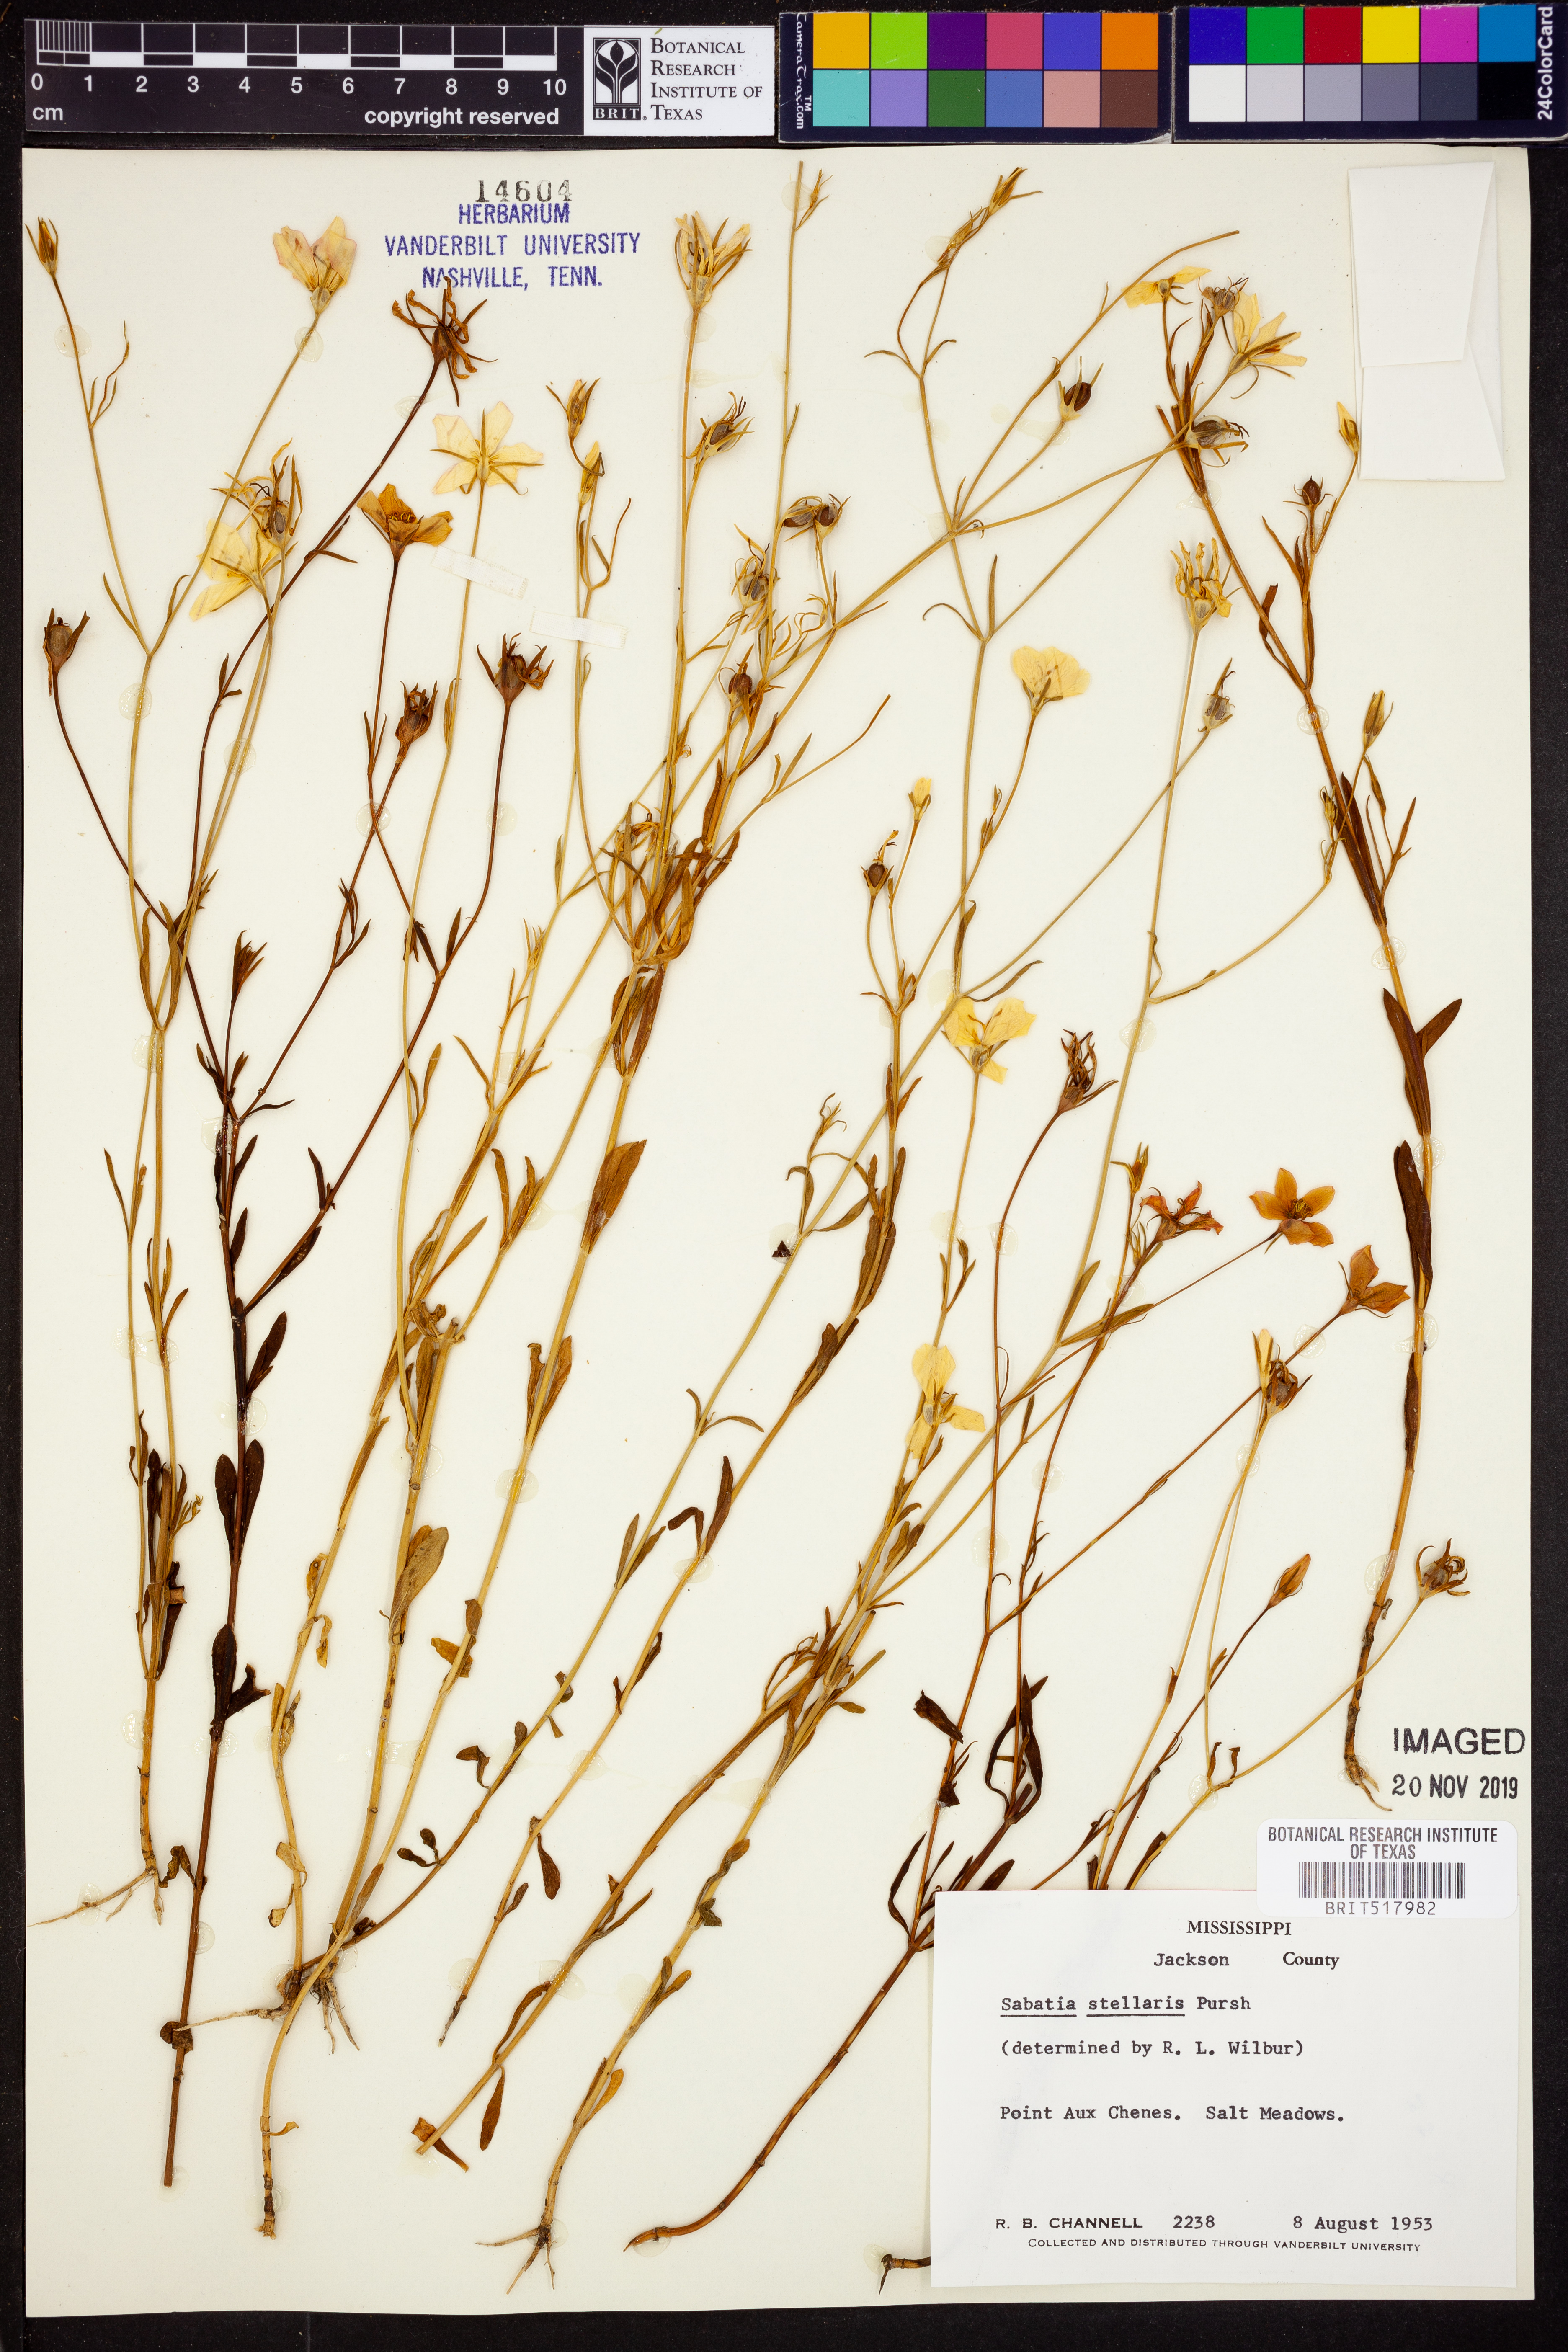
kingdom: Plantae
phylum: Tracheophyta
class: Magnoliopsida
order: Gentianales
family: Gentianaceae
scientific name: Gentianaceae
